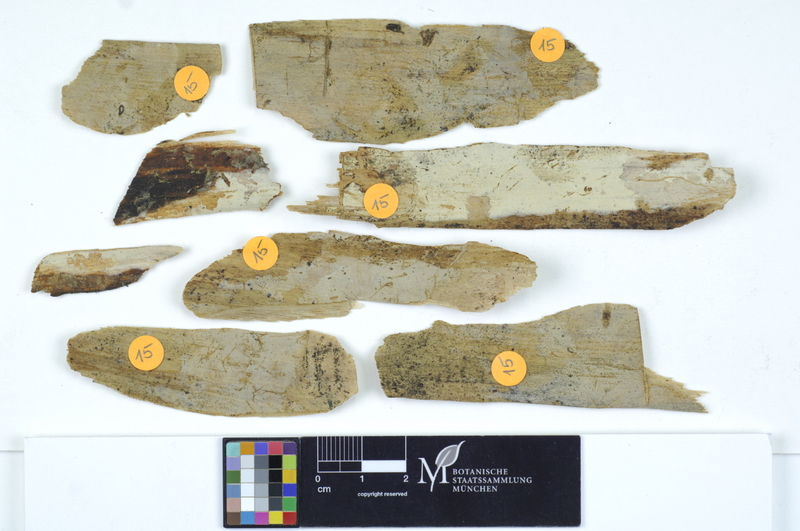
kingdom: Fungi
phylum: Basidiomycota
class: Agaricomycetes
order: Auriculariales
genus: Basidiodendron
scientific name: Basidiodendron caesiocinereum
